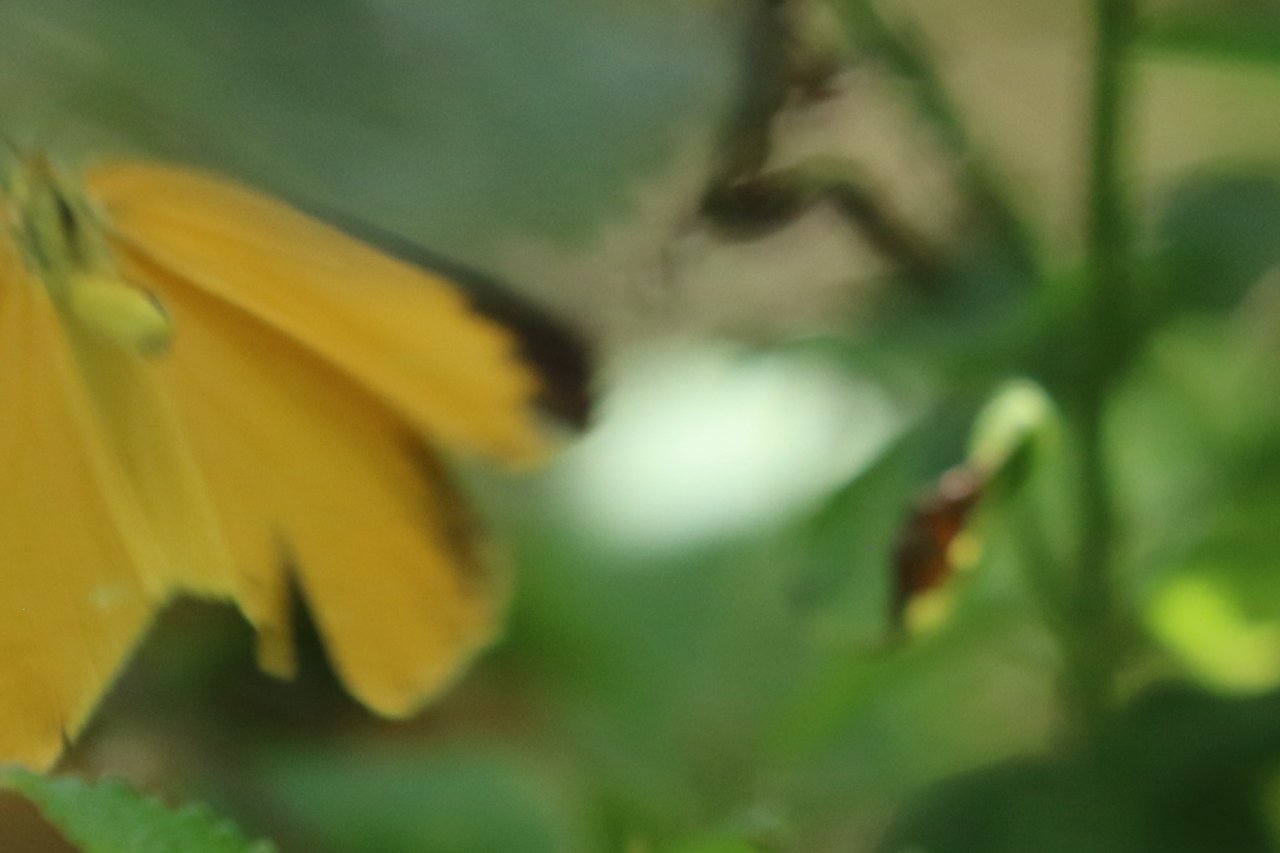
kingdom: Animalia
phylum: Arthropoda
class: Insecta
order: Lepidoptera
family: Pieridae
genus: Pyrisitia
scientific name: Pyrisitia proterpia
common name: Tailed Orange
